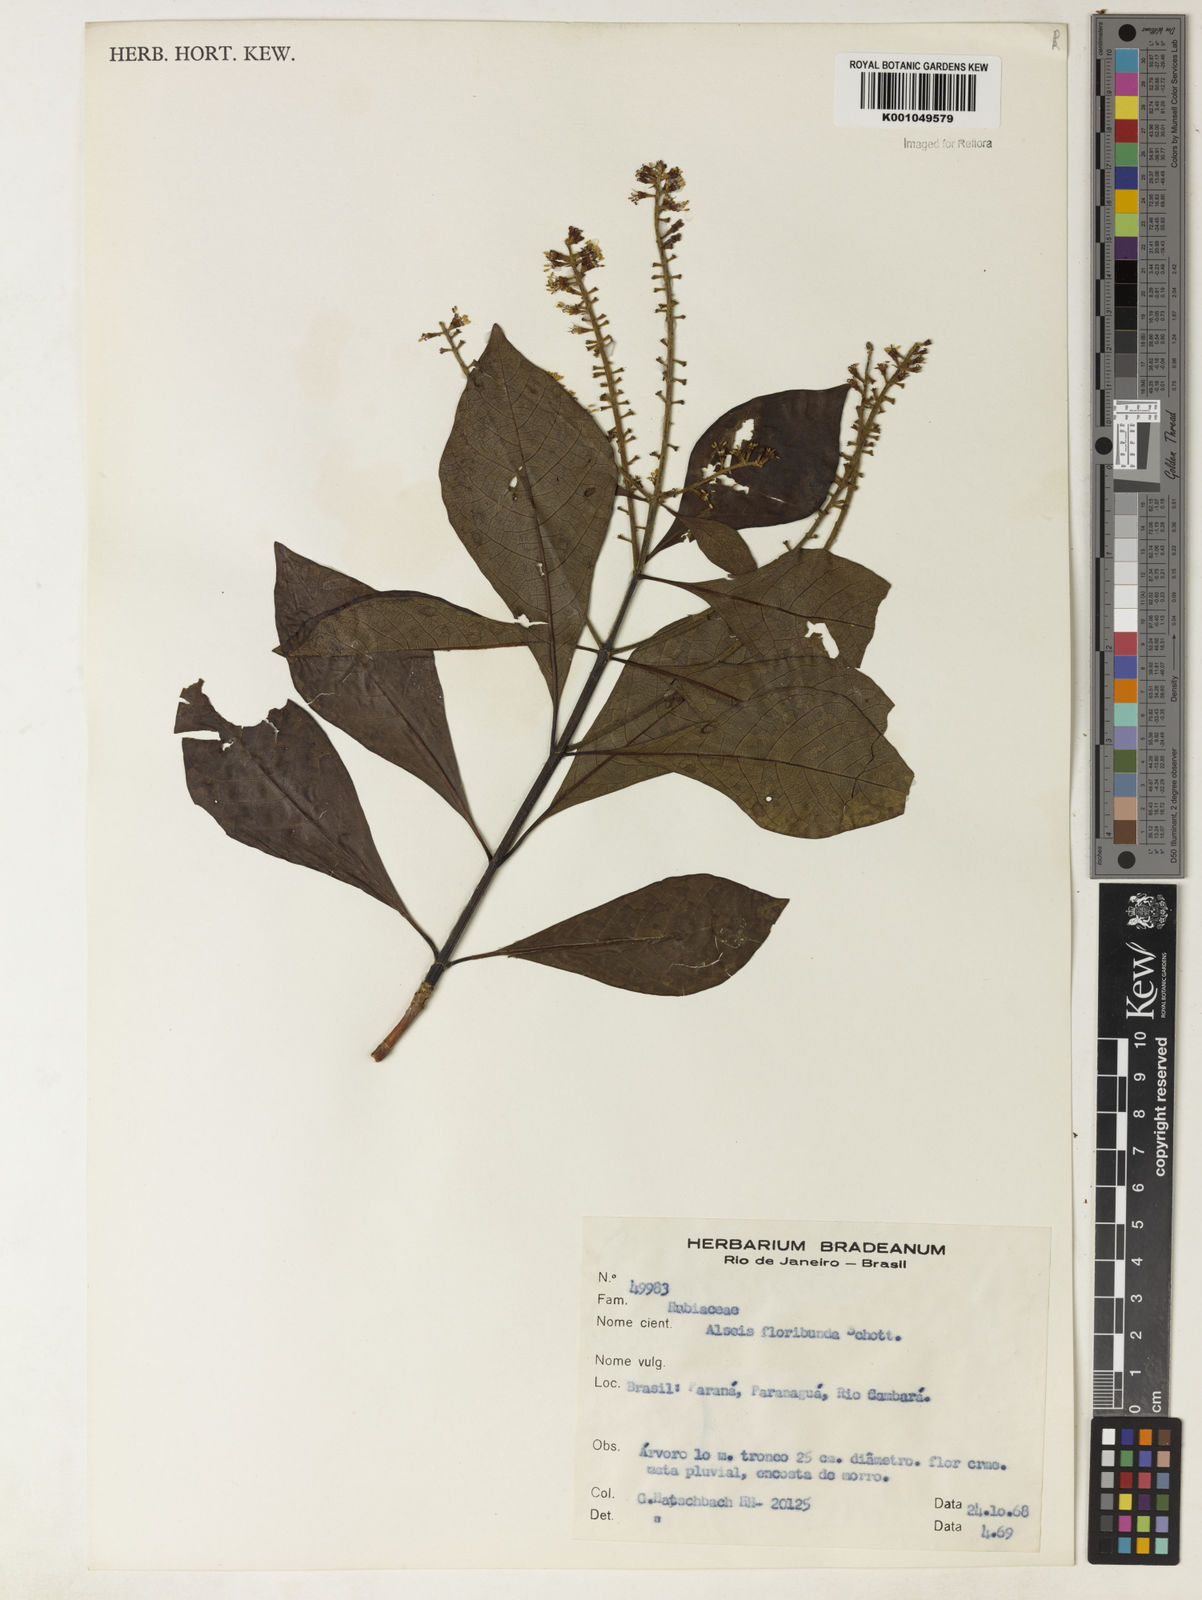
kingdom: Plantae
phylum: Tracheophyta
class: Magnoliopsida
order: Gentianales
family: Rubiaceae
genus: Alseis
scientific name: Alseis floribunda
